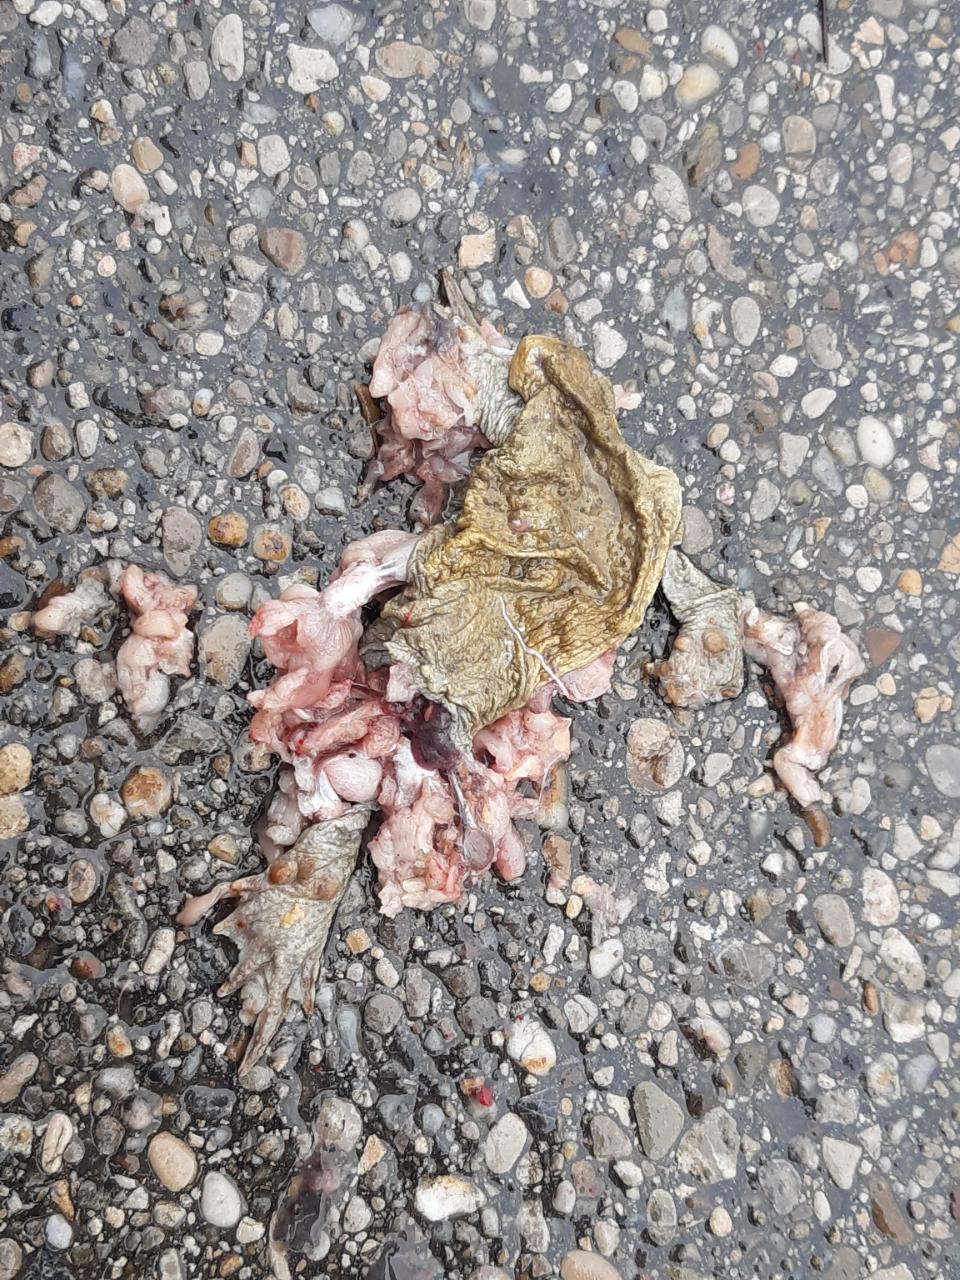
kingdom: Animalia
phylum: Chordata
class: Amphibia
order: Anura
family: Bufonidae
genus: Bufo
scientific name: Bufo bufo
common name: Common toad
